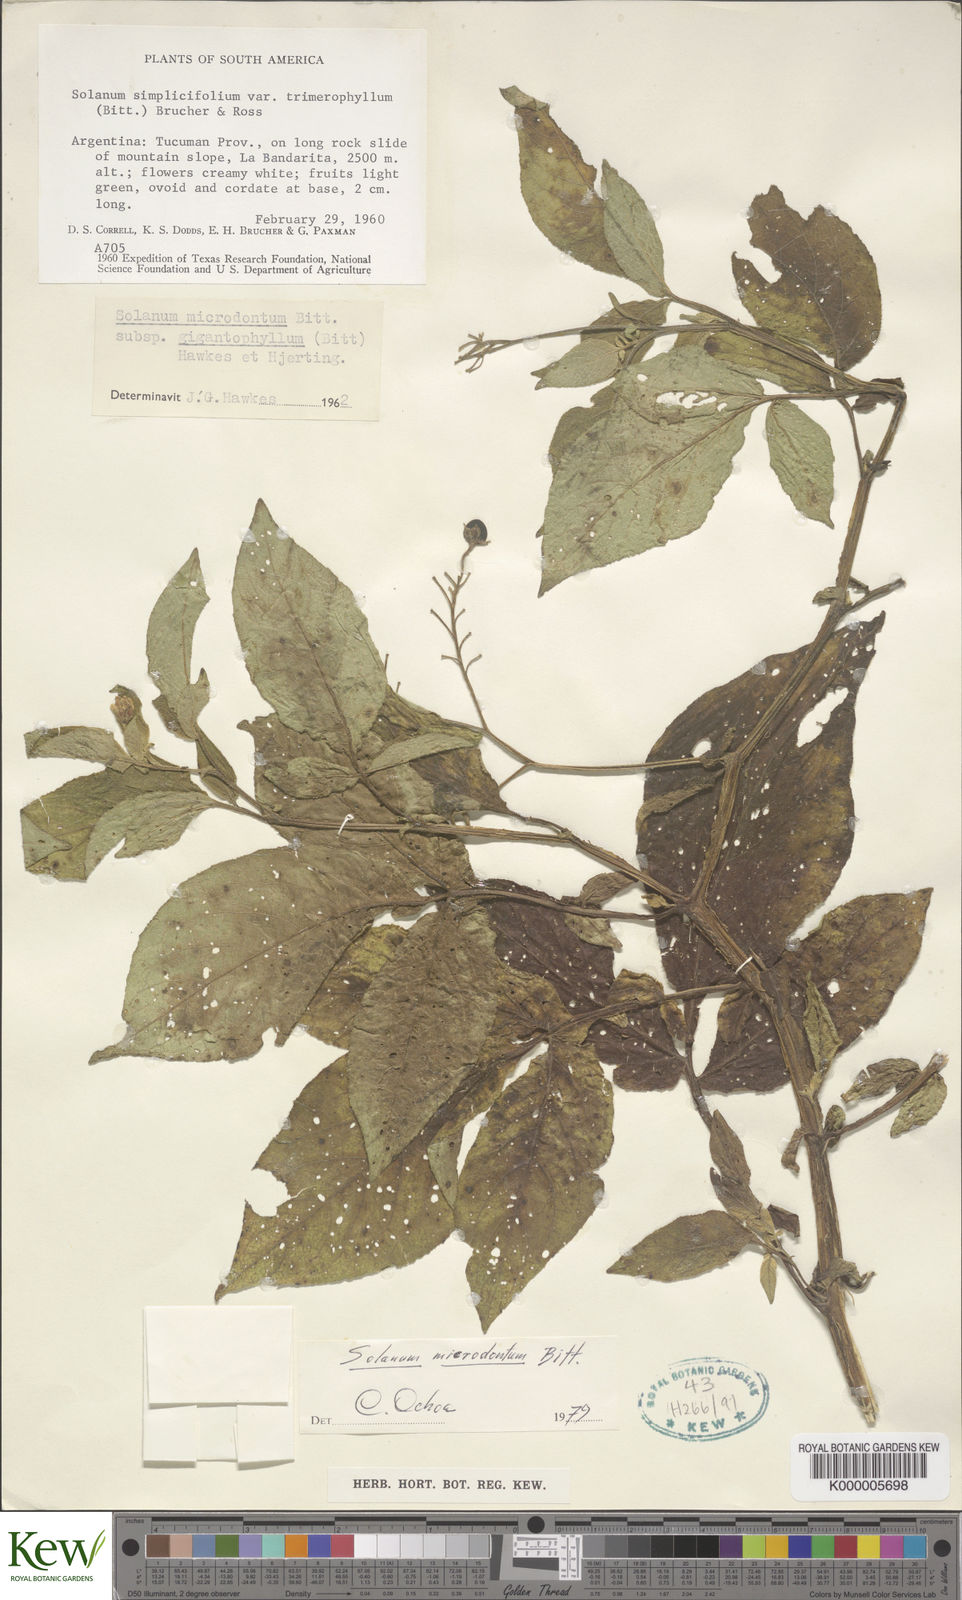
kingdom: Plantae
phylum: Tracheophyta
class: Magnoliopsida
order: Solanales
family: Solanaceae
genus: Solanum
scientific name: Solanum microdontum
